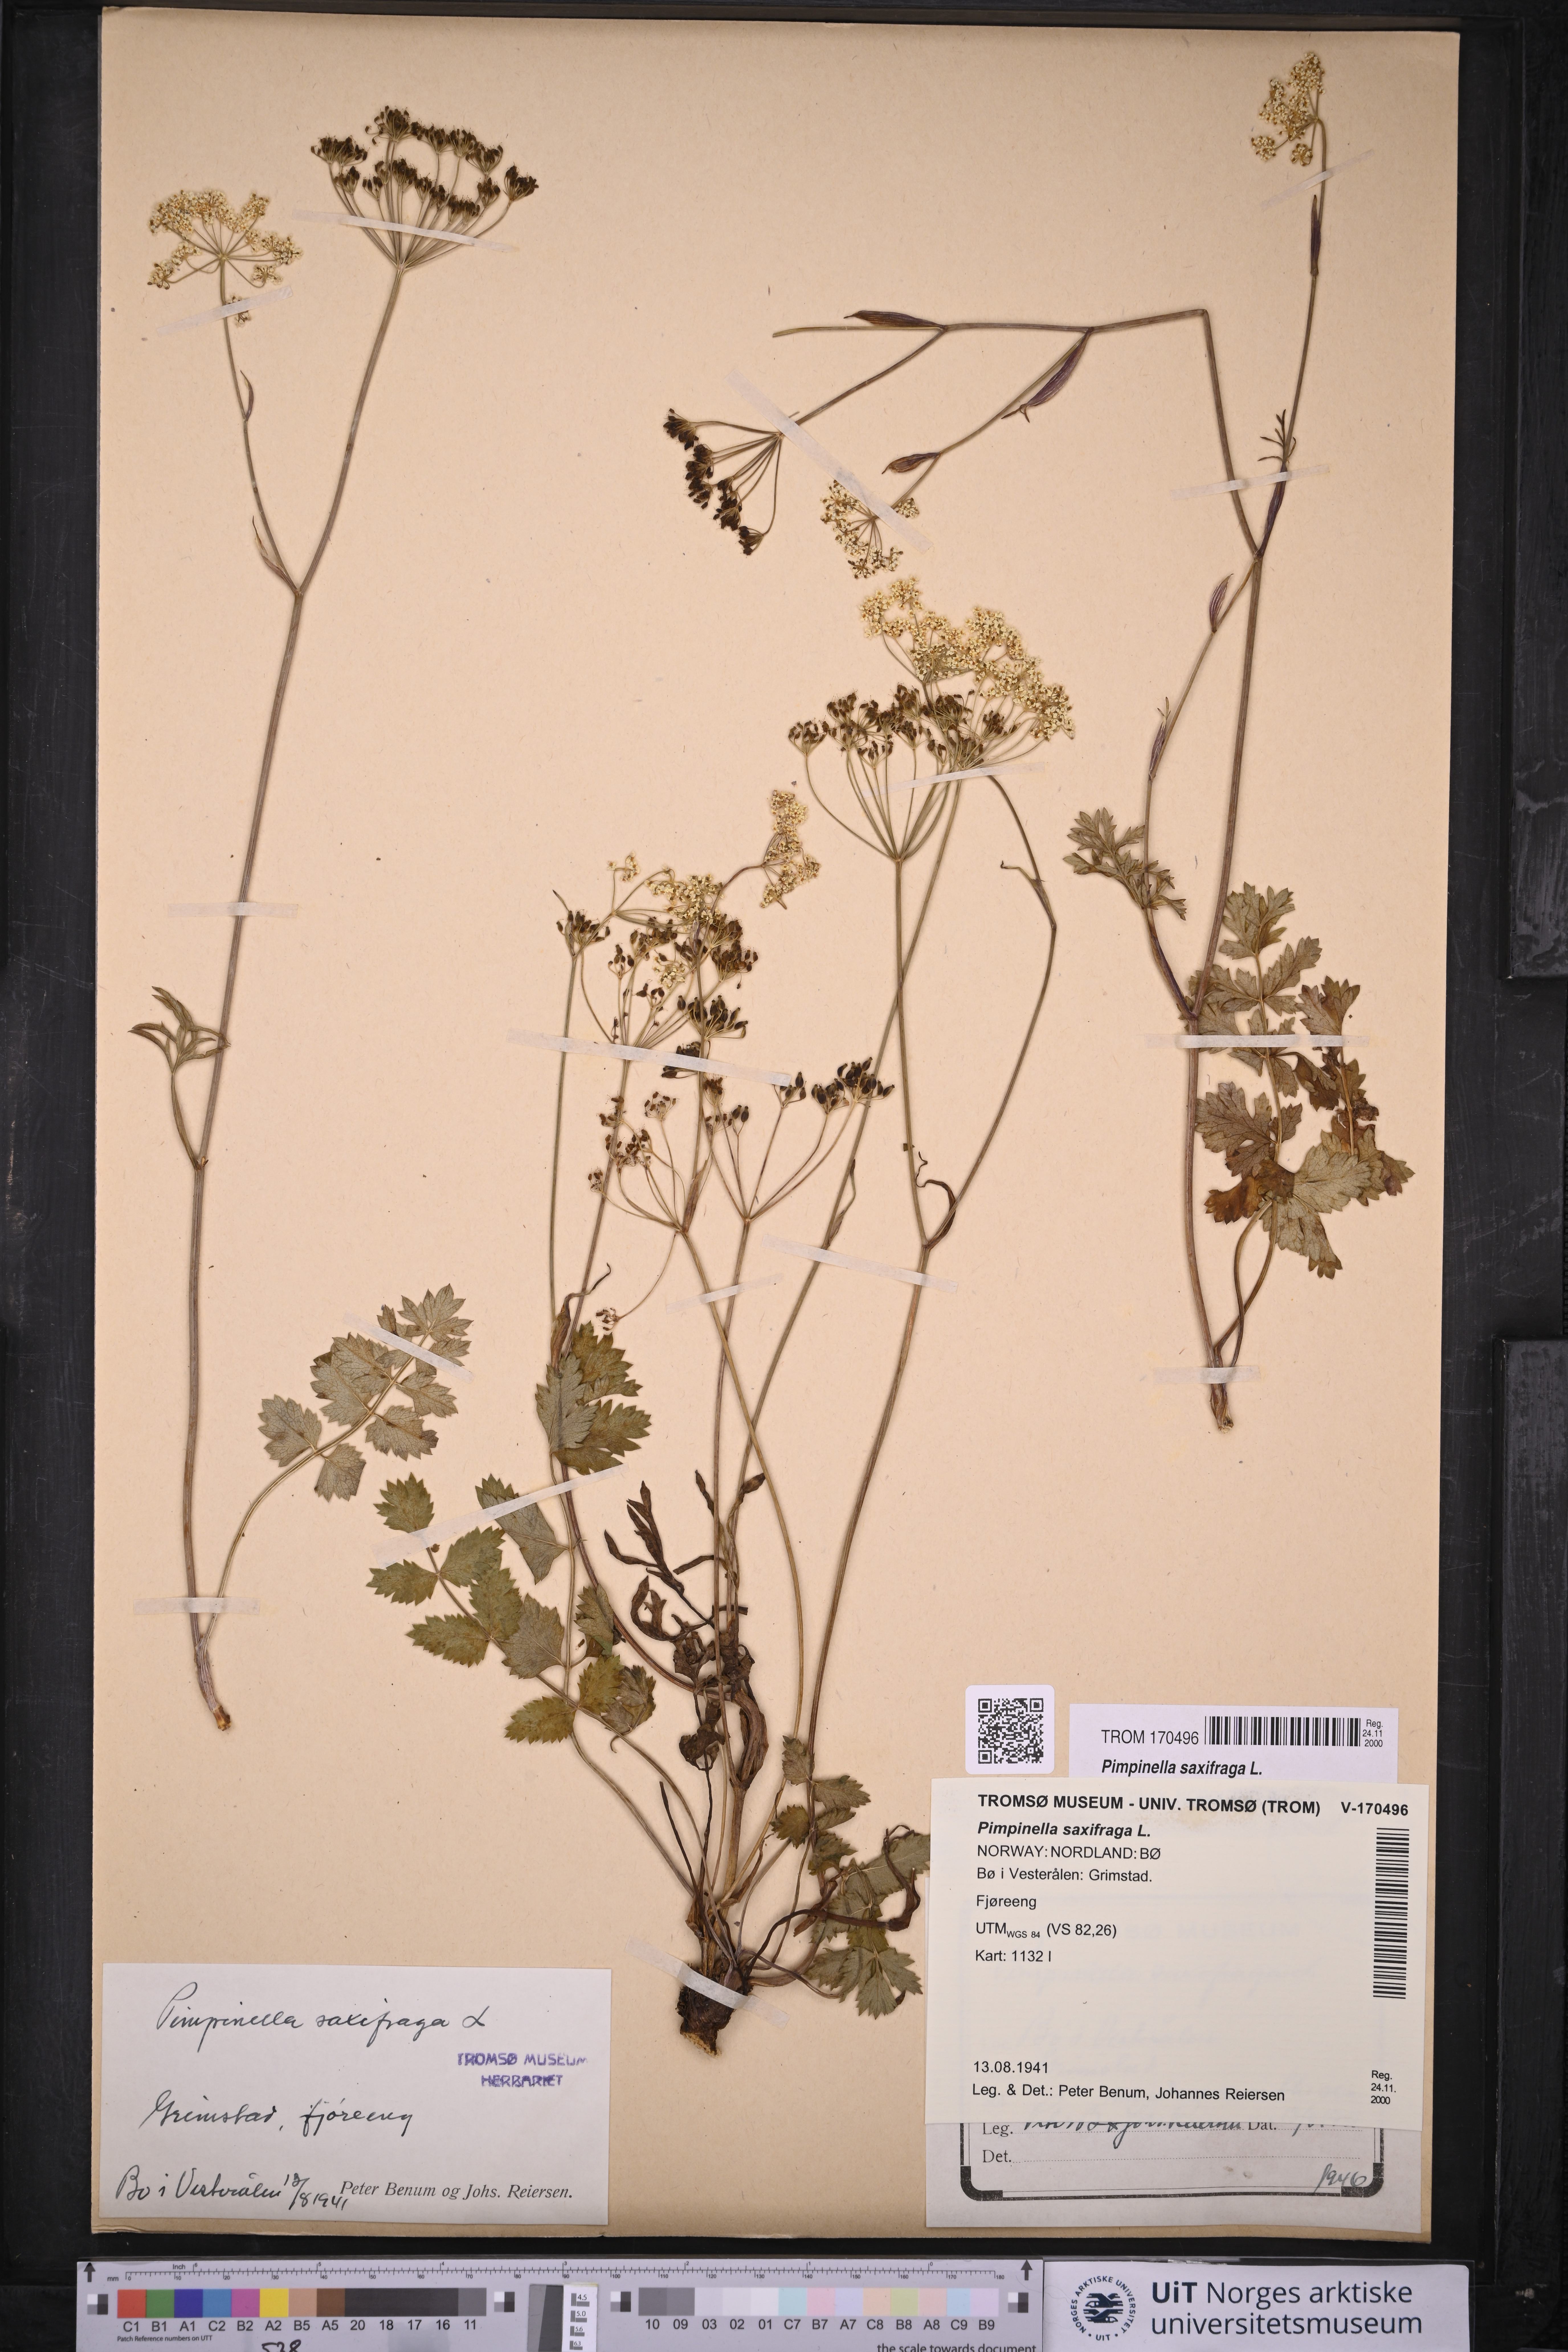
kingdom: Plantae
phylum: Tracheophyta
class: Magnoliopsida
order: Apiales
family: Apiaceae
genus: Pimpinella
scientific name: Pimpinella saxifraga
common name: Burnet-saxifrage
